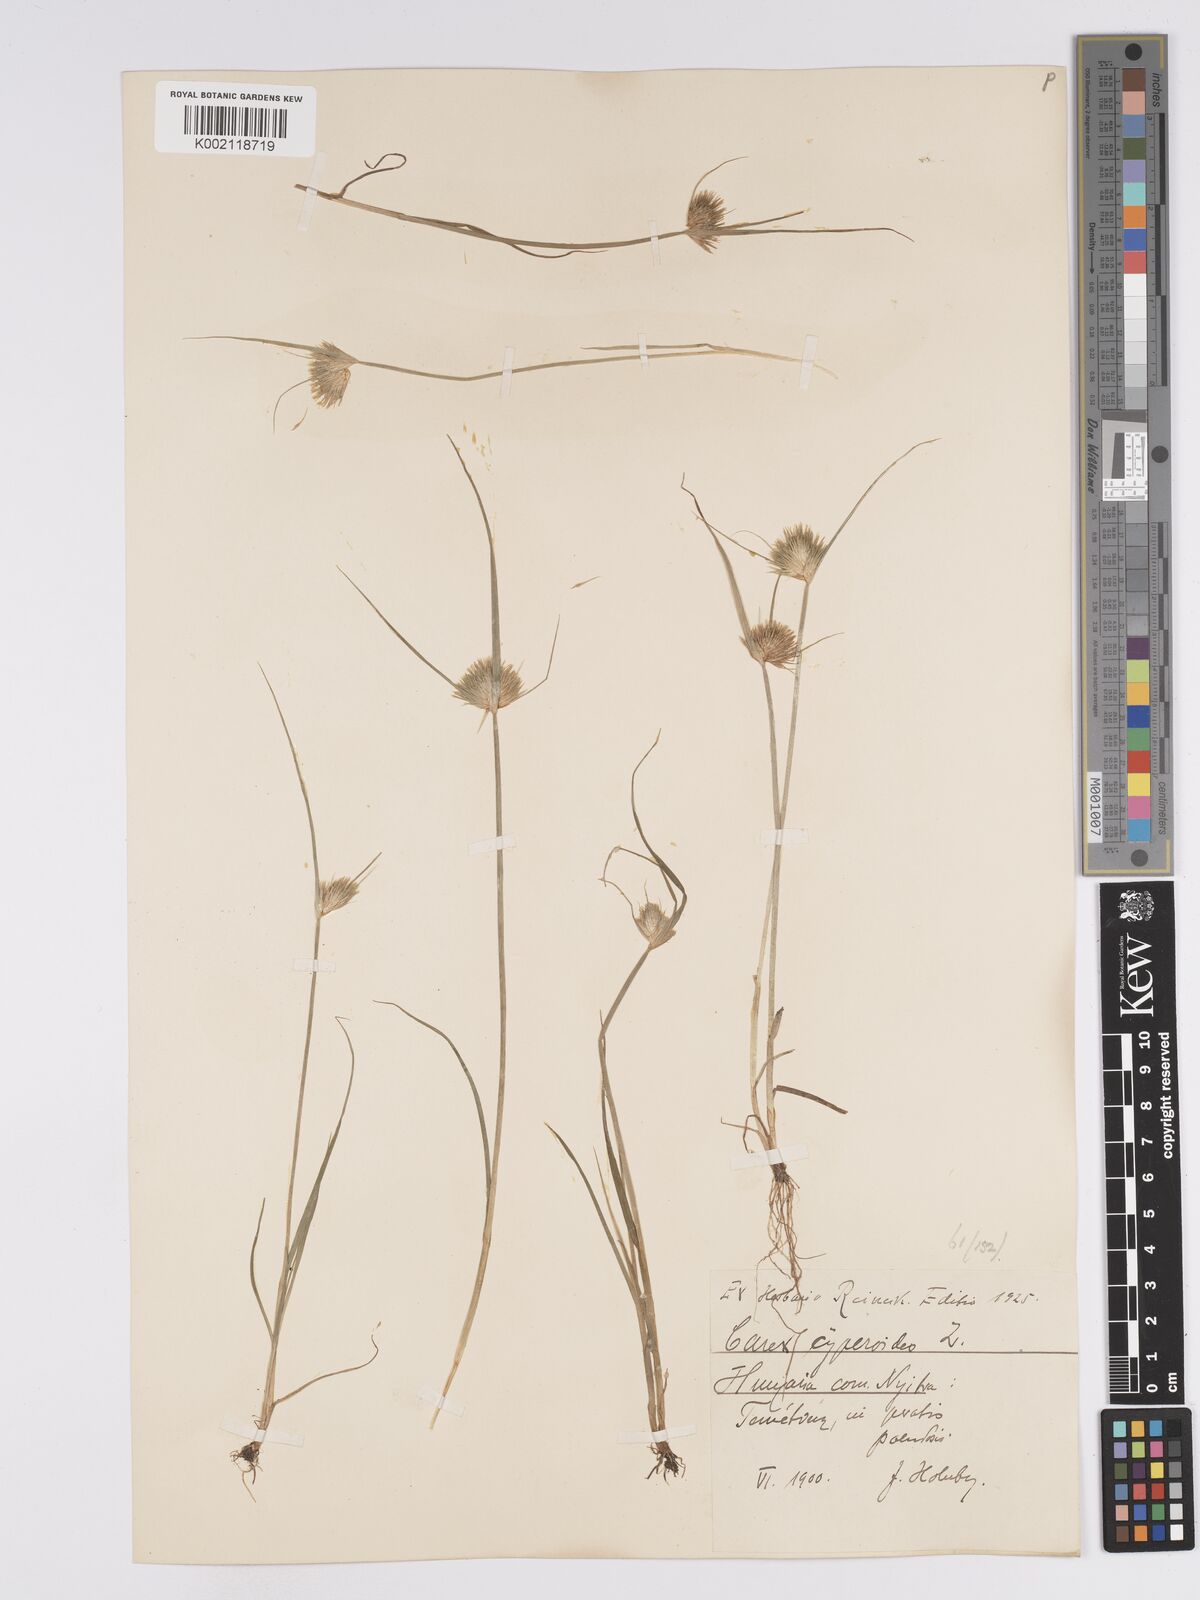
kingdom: Plantae
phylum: Tracheophyta
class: Liliopsida
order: Poales
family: Cyperaceae
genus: Carex
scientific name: Carex bohemica
